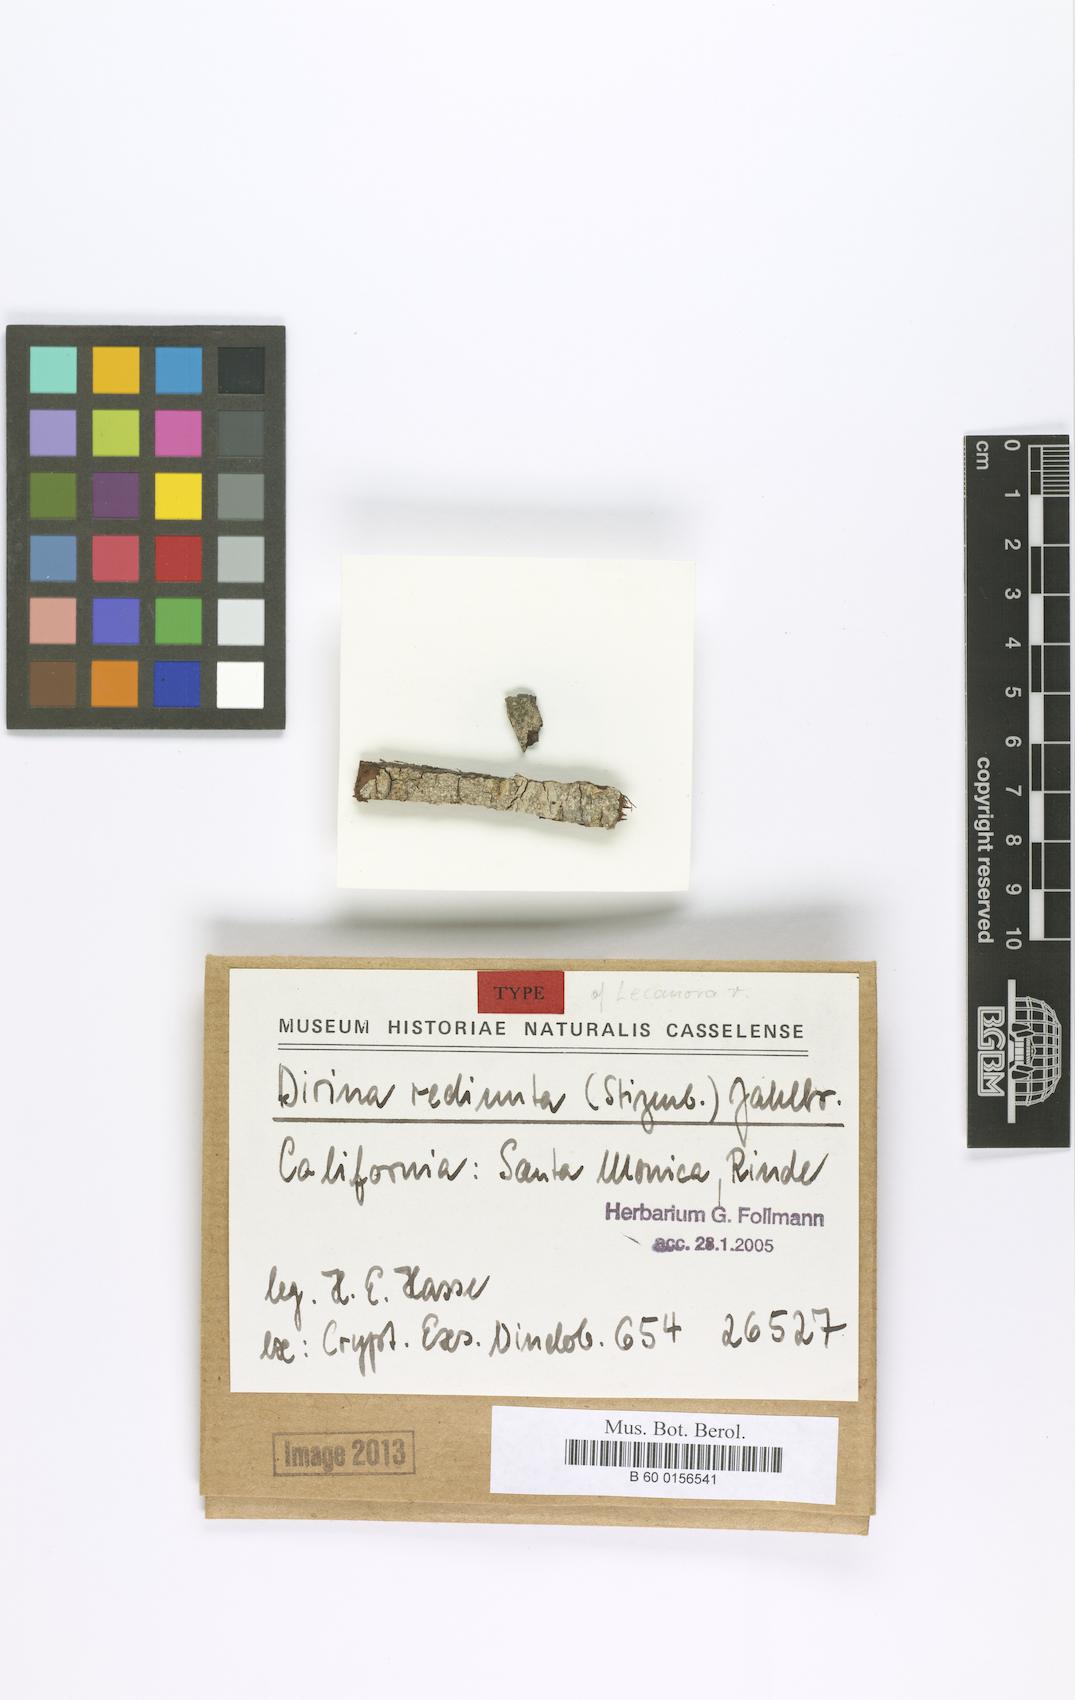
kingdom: Fungi
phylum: Ascomycota
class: Arthoniomycetes
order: Arthoniales
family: Roccellaceae
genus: Ocellomma
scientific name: Ocellomma rediuntum
